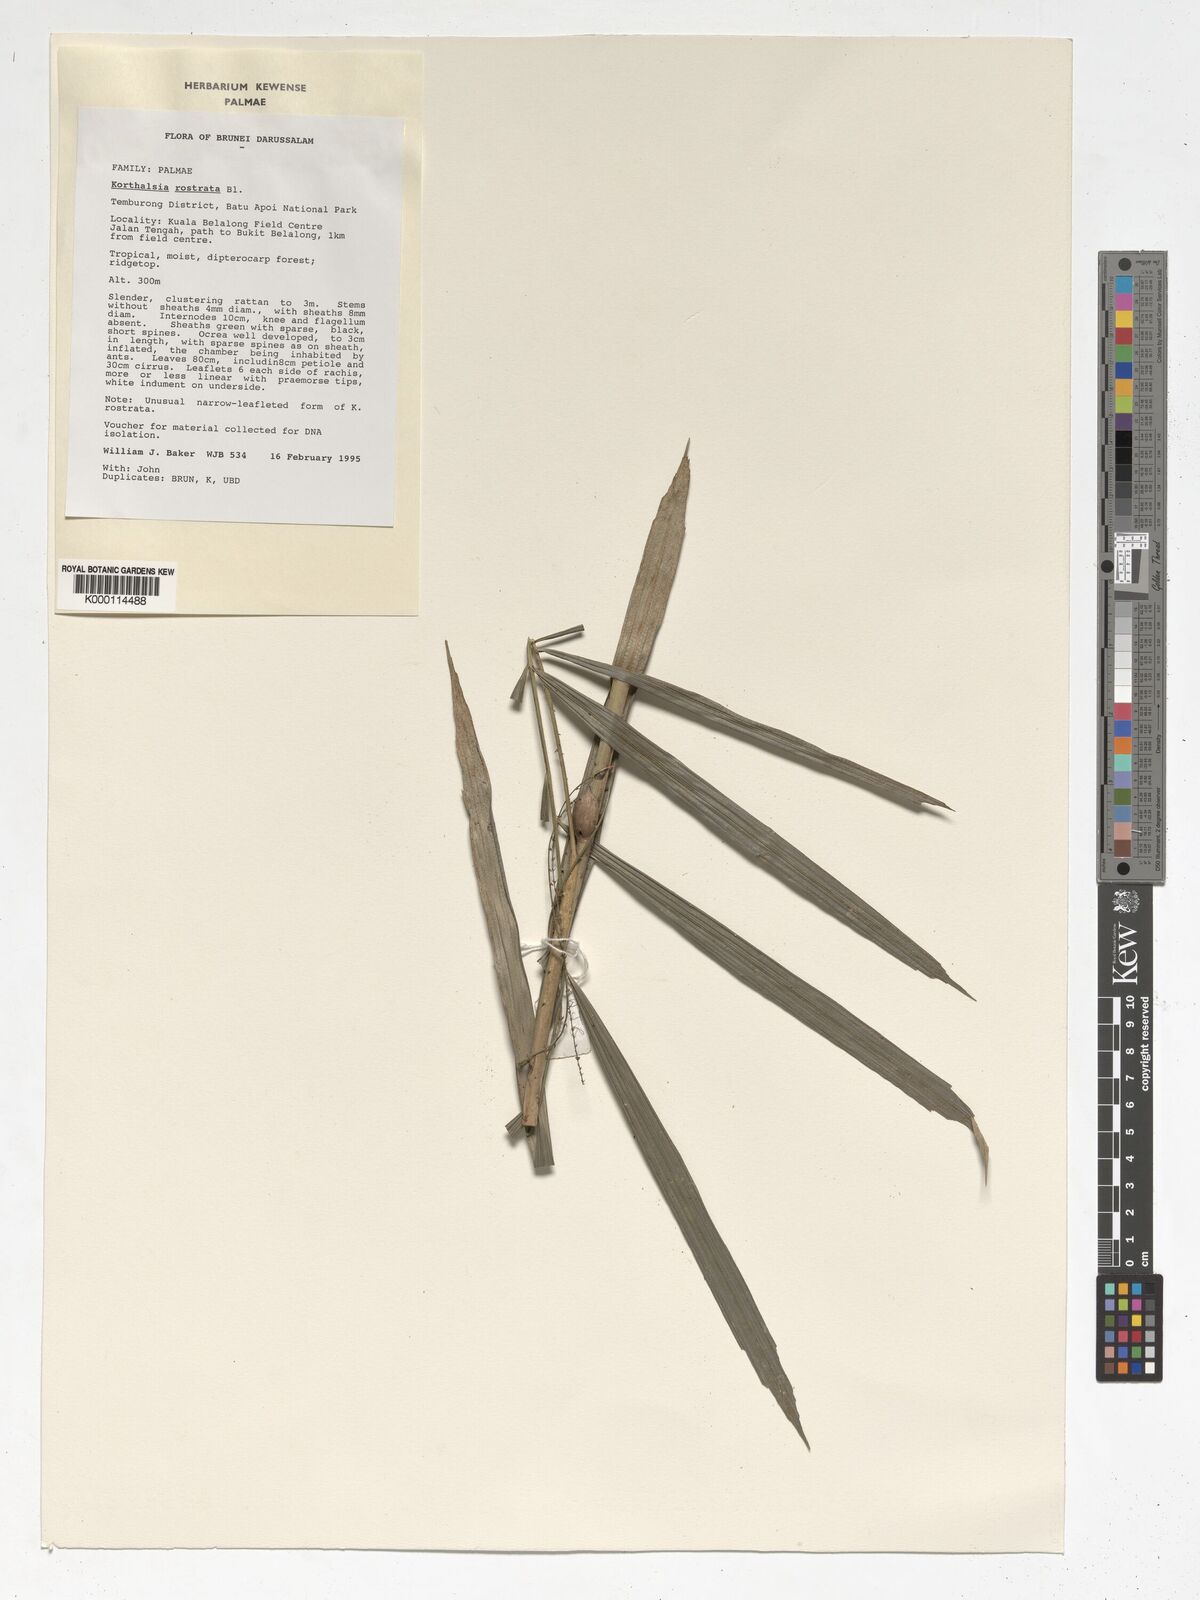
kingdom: Plantae
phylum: Tracheophyta
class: Liliopsida
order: Arecales
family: Arecaceae
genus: Korthalsia
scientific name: Korthalsia robusta
